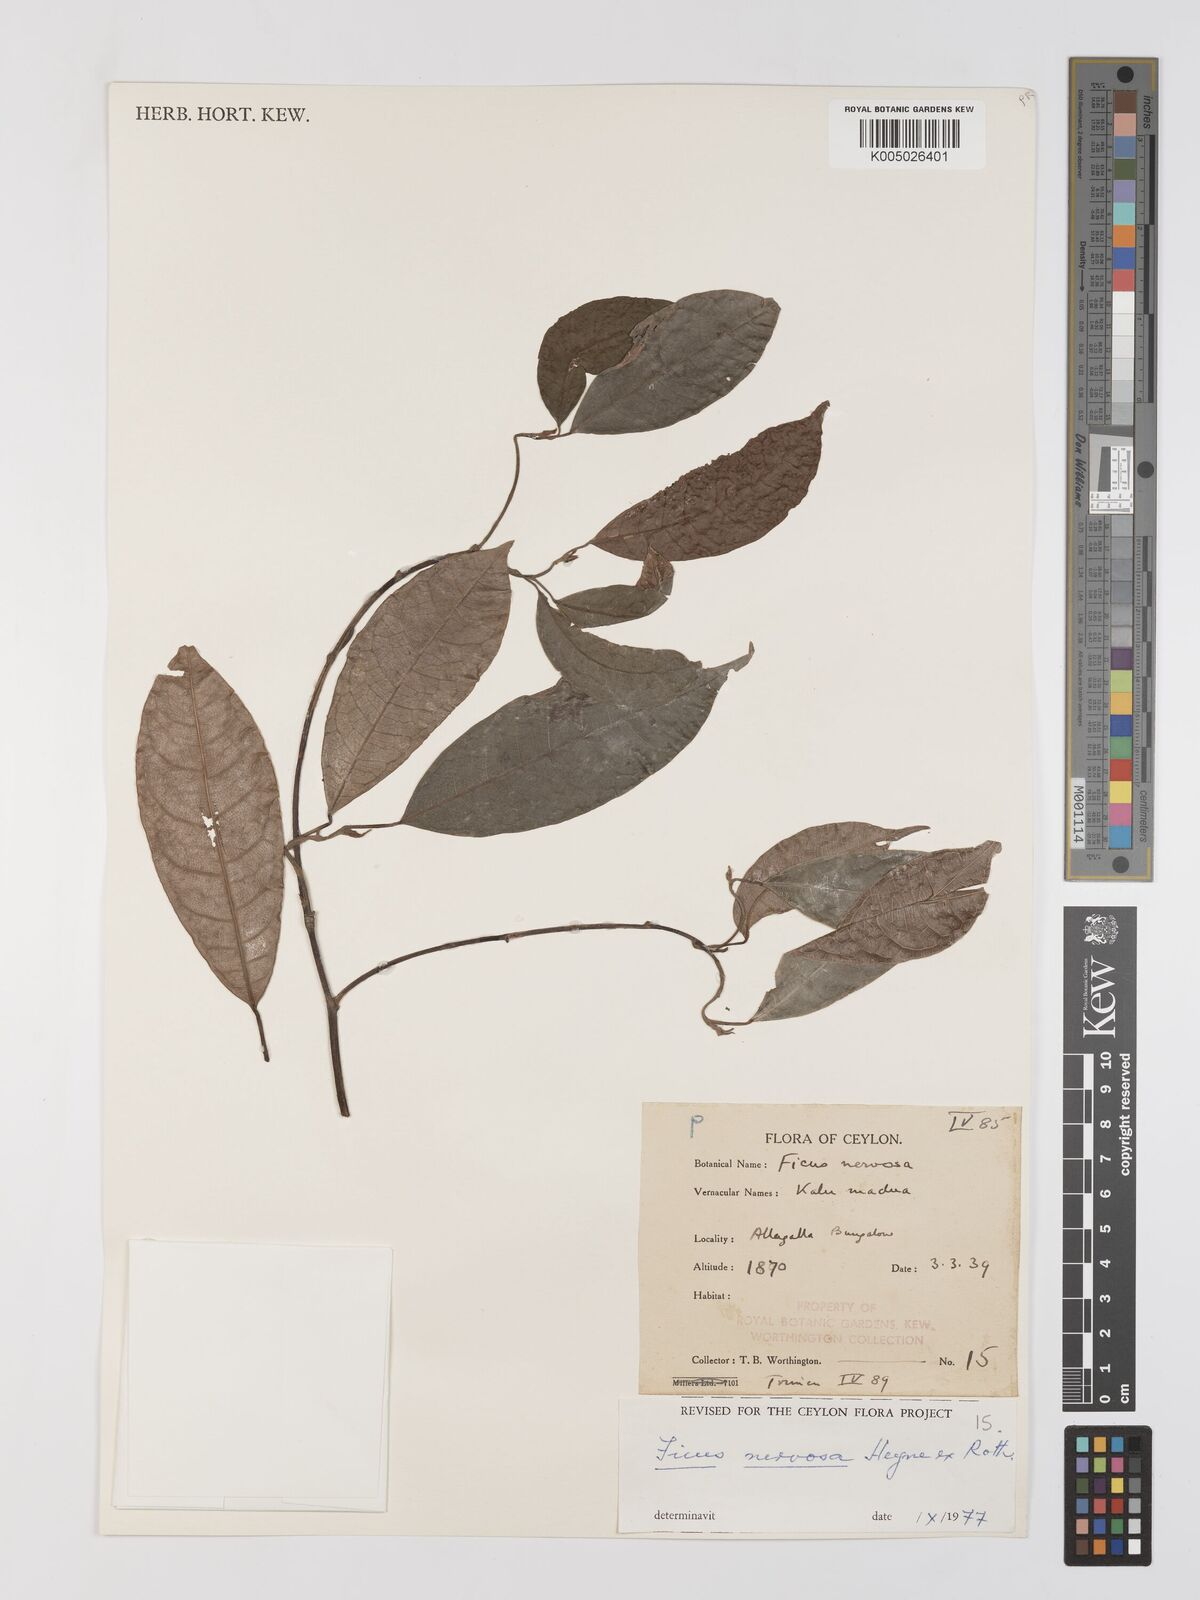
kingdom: Plantae
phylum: Tracheophyta
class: Magnoliopsida
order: Rosales
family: Moraceae
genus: Ficus
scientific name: Ficus nervosa
